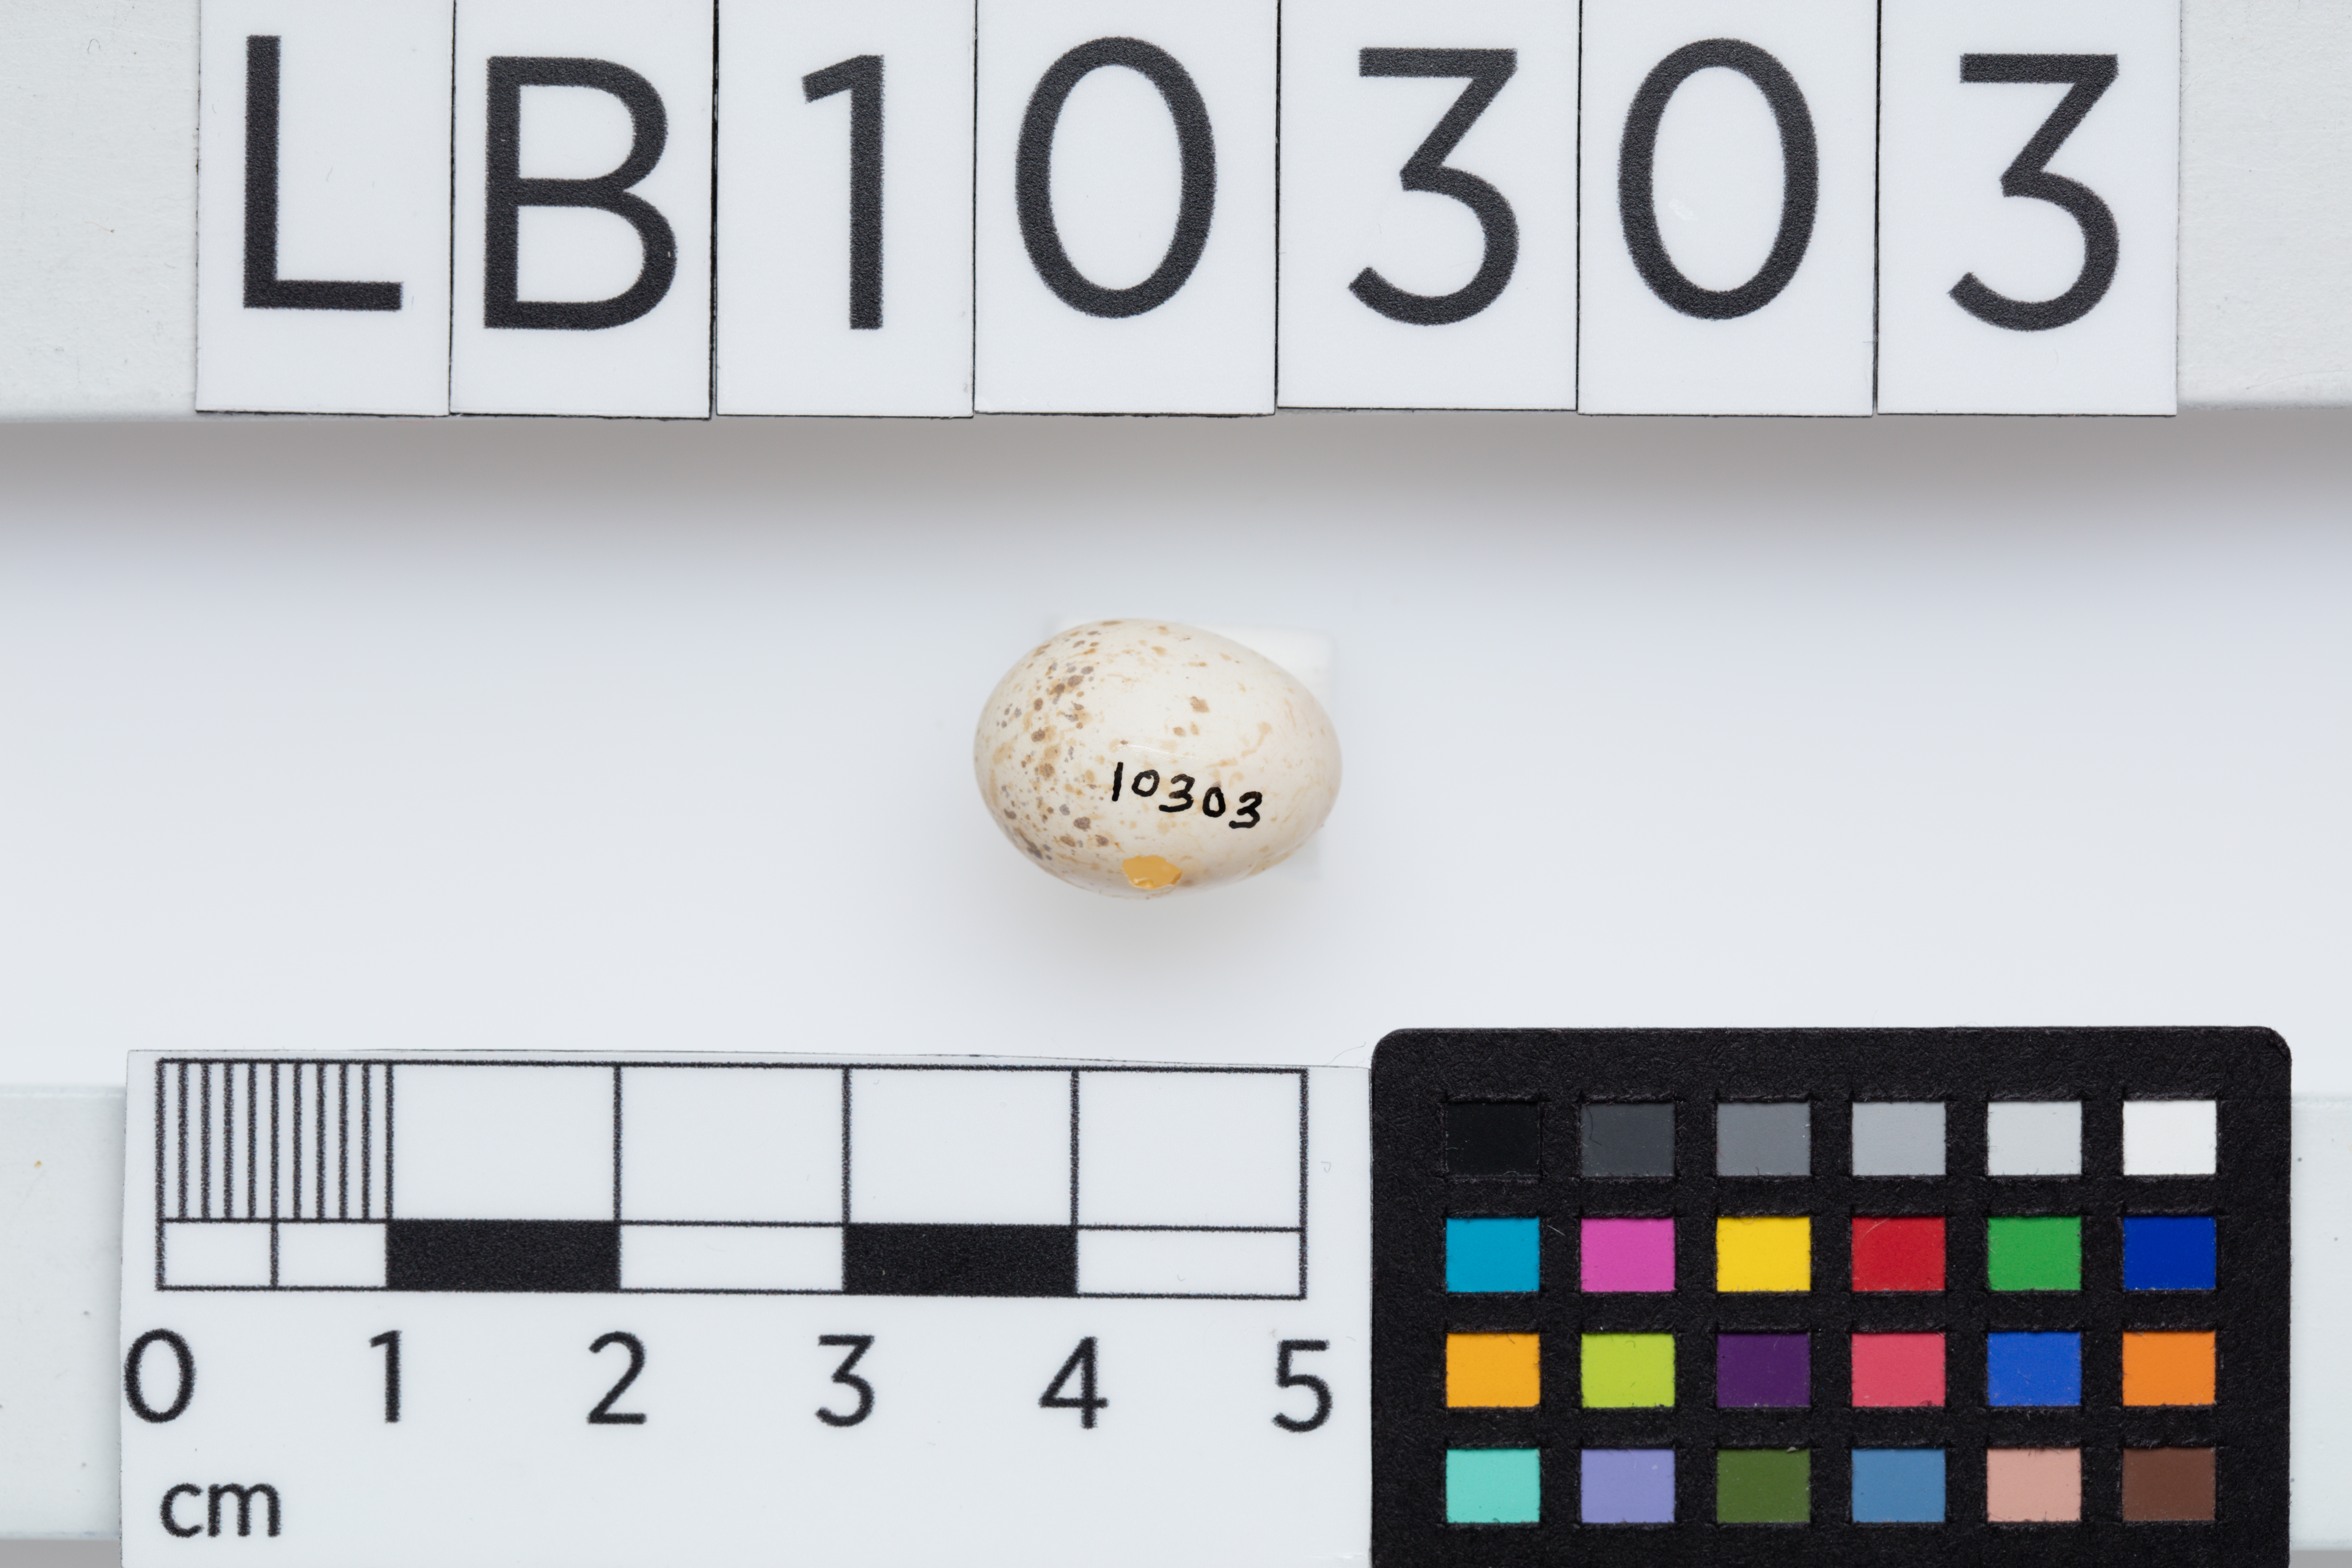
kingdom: Animalia
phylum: Chordata
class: Aves
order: Passeriformes
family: Rhipiduridae
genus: Rhipidura
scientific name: Rhipidura fuliginosa
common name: New zealand fantail
